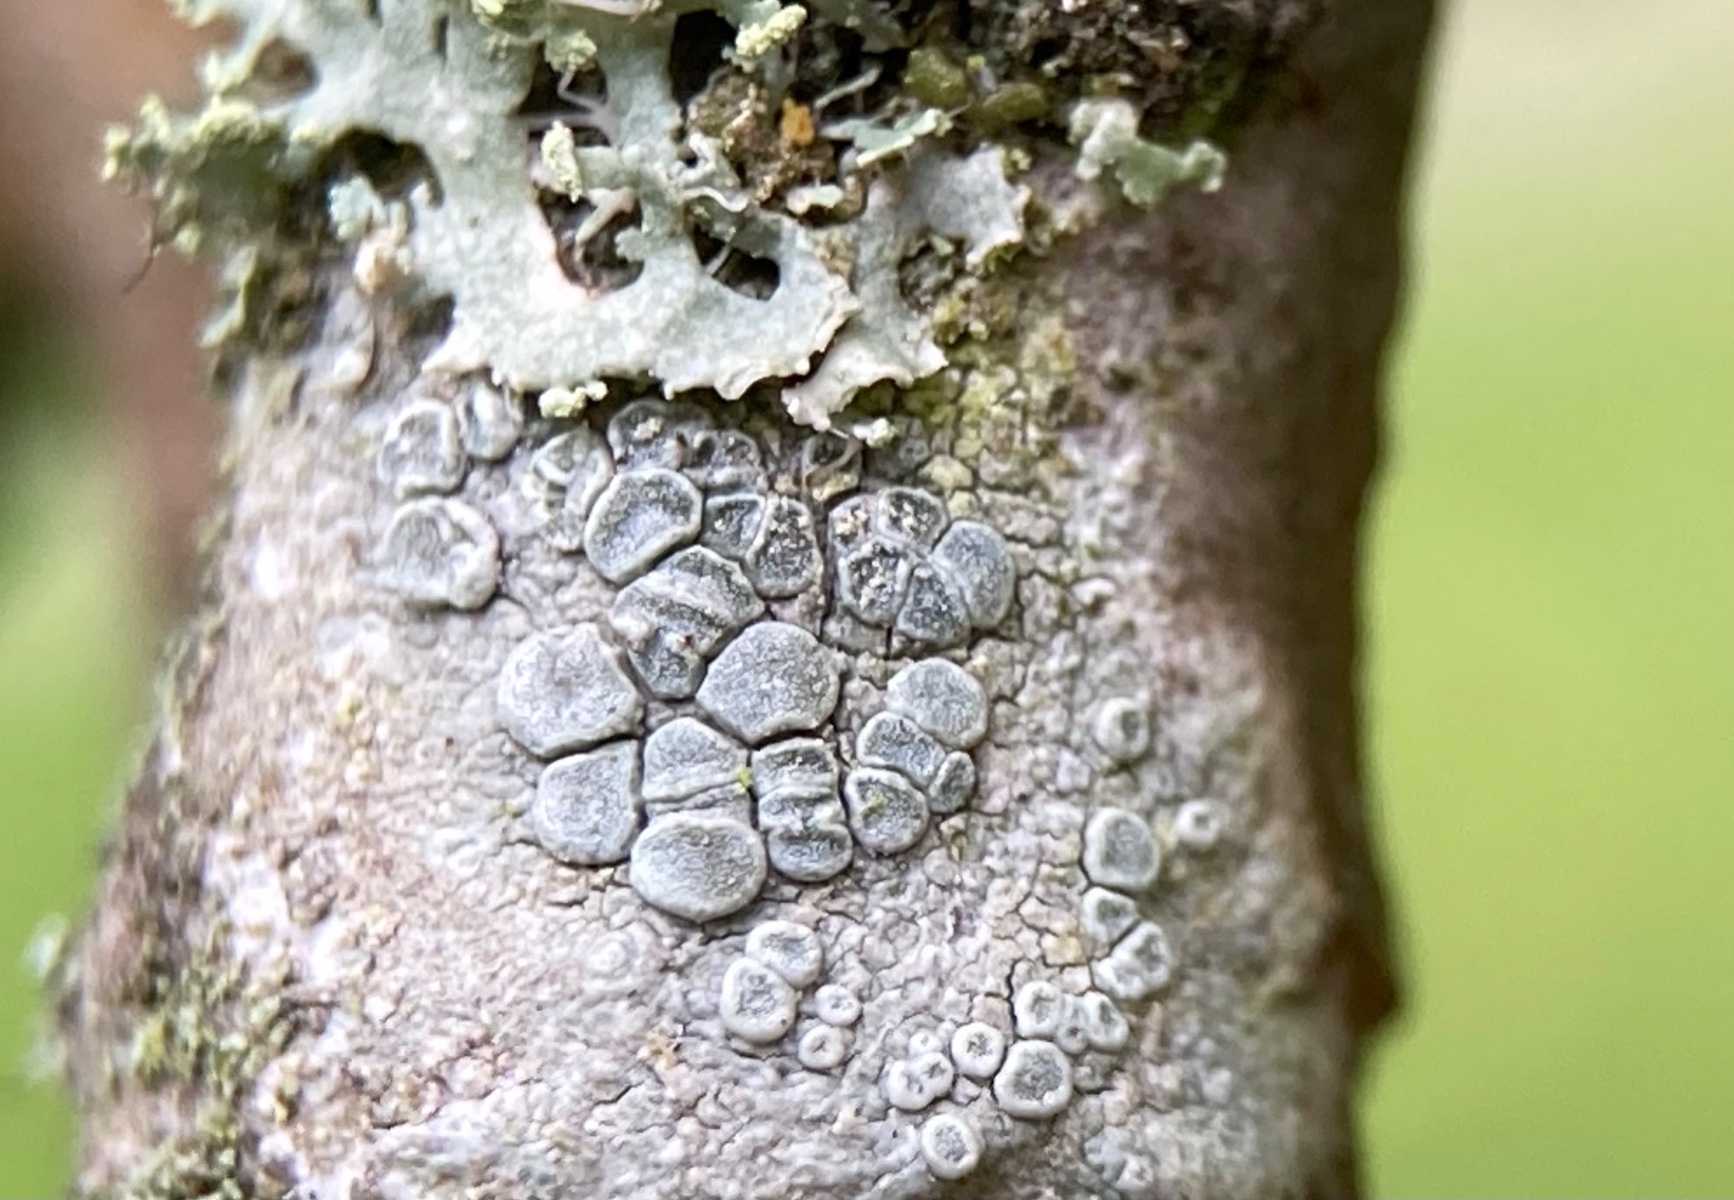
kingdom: Fungi
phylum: Ascomycota
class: Lecanoromycetes
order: Lecanorales
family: Lecanoraceae
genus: Glaucomaria
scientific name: Glaucomaria carpinea
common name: hviddugget kantskivelav
